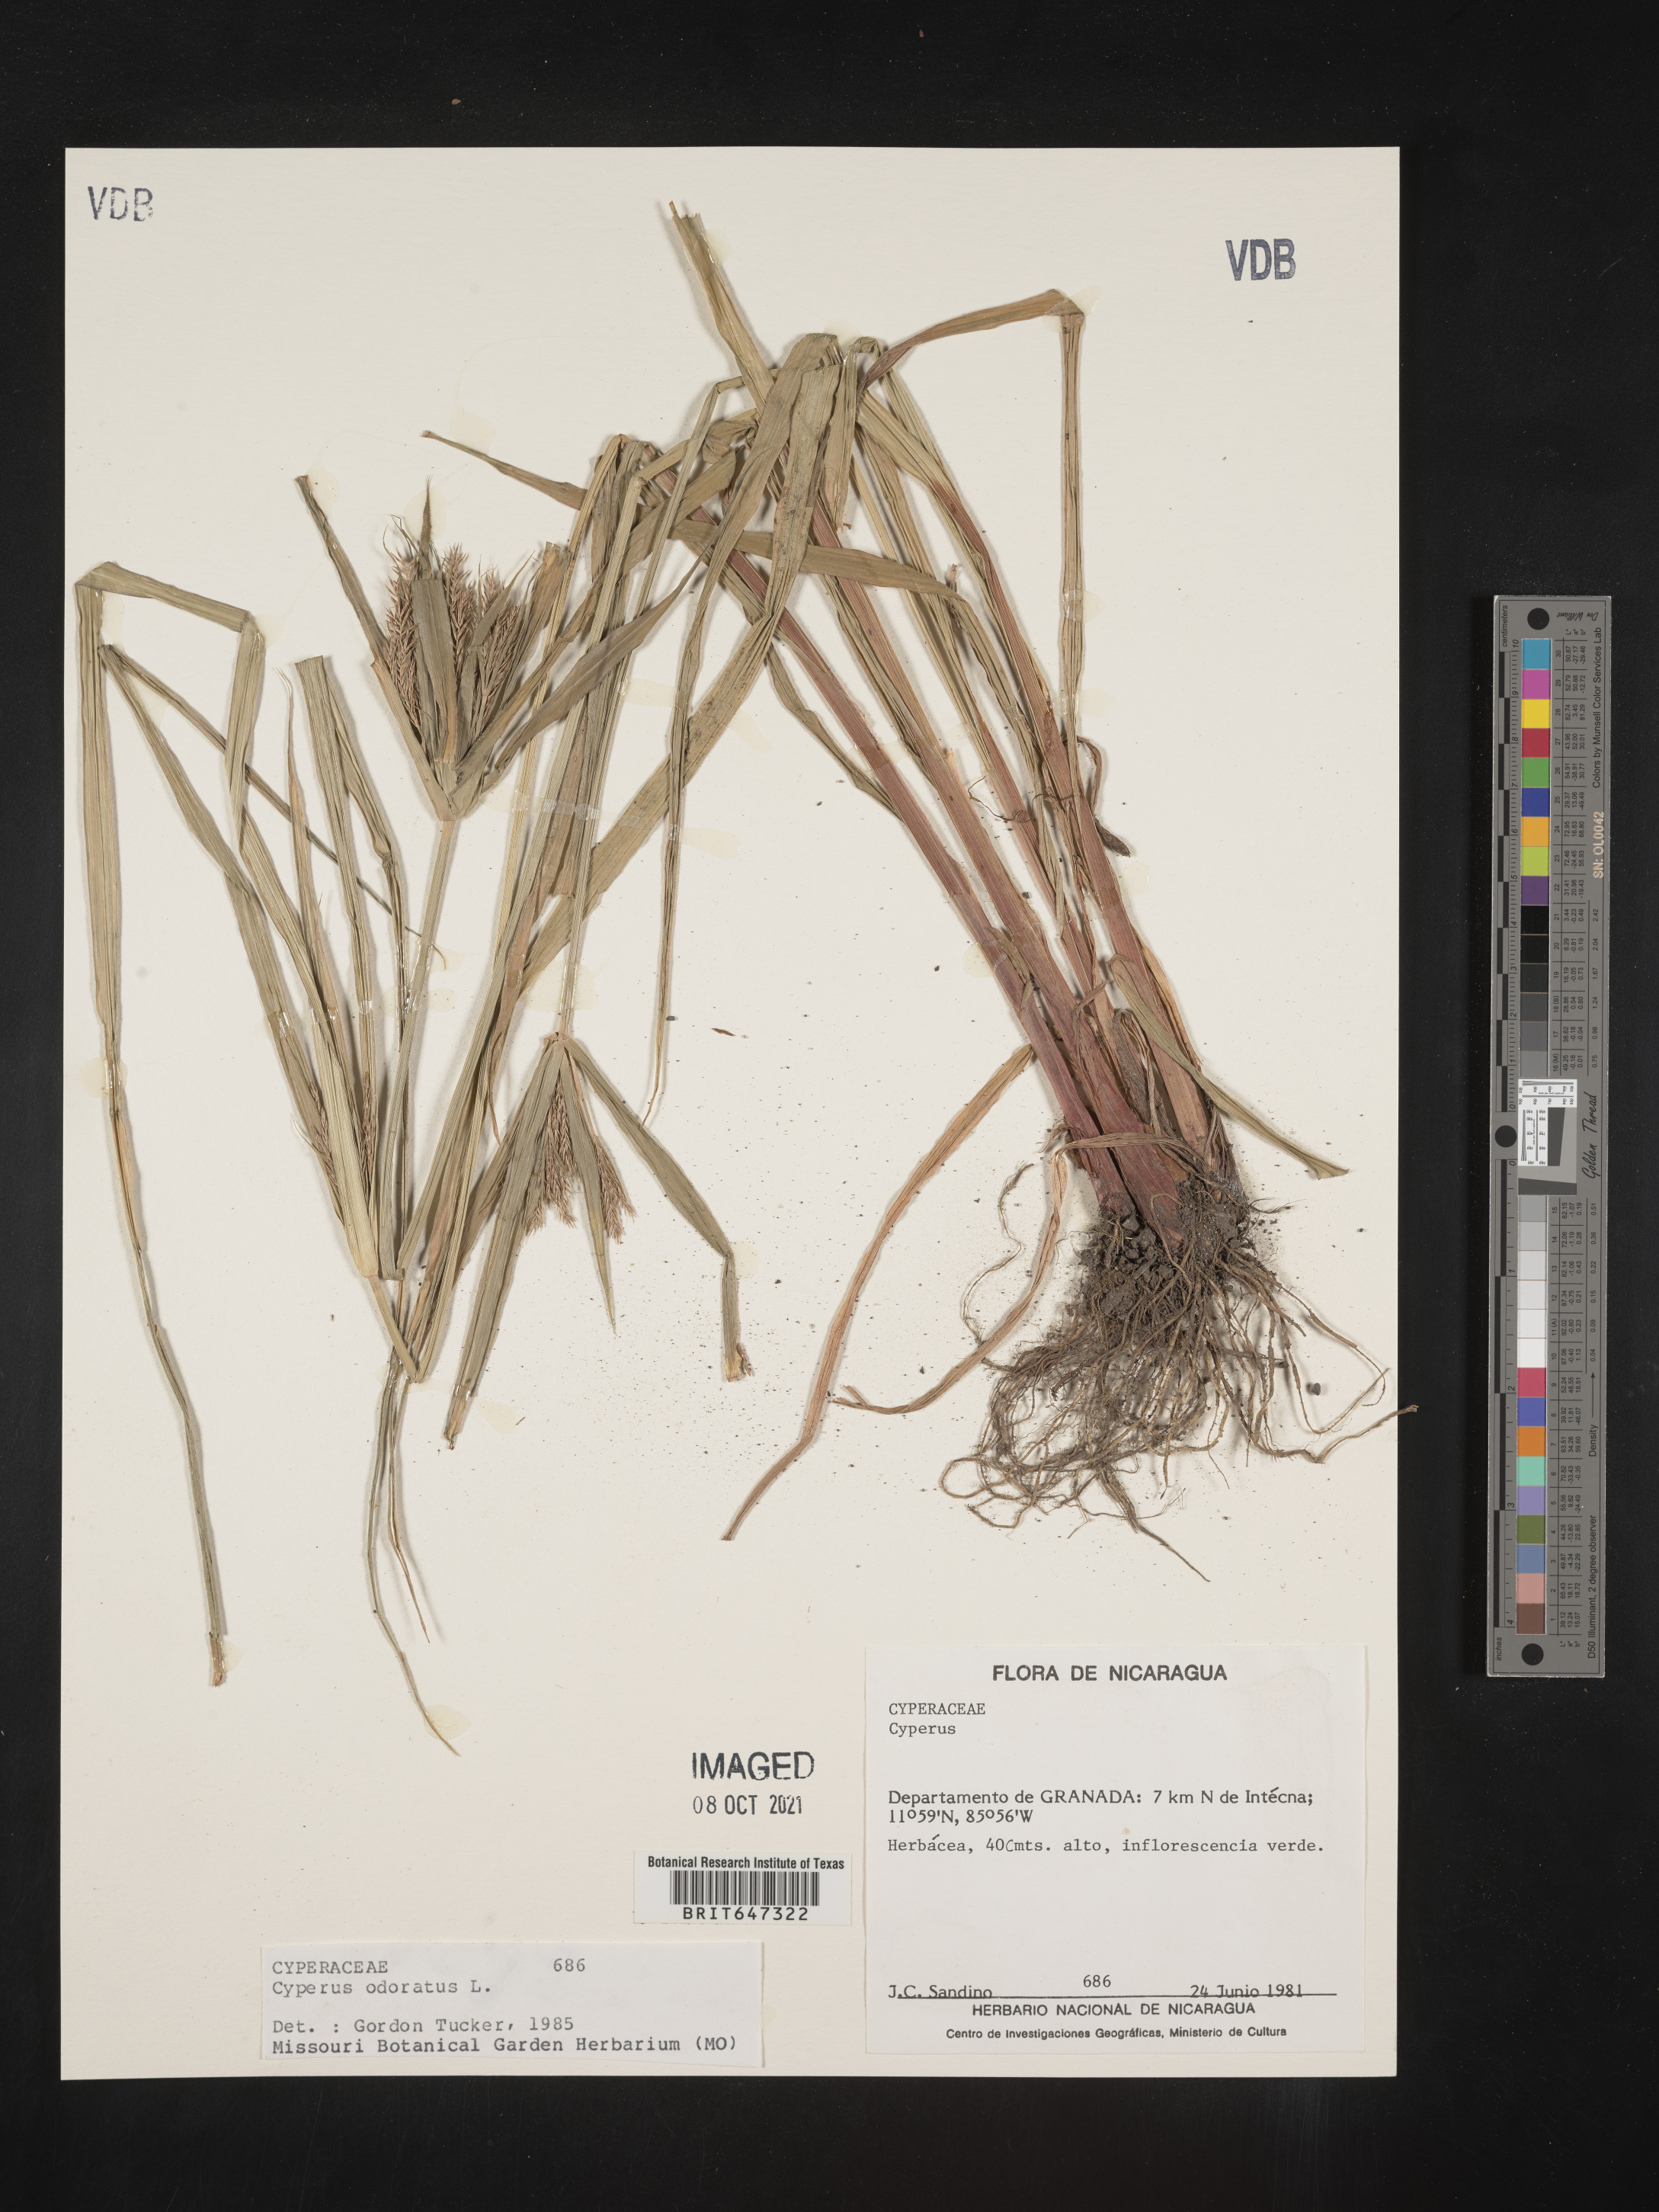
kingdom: Plantae
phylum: Tracheophyta
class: Liliopsida
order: Poales
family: Cyperaceae
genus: Cyperus
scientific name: Cyperus odoratus
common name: Fragrant flatsedge
